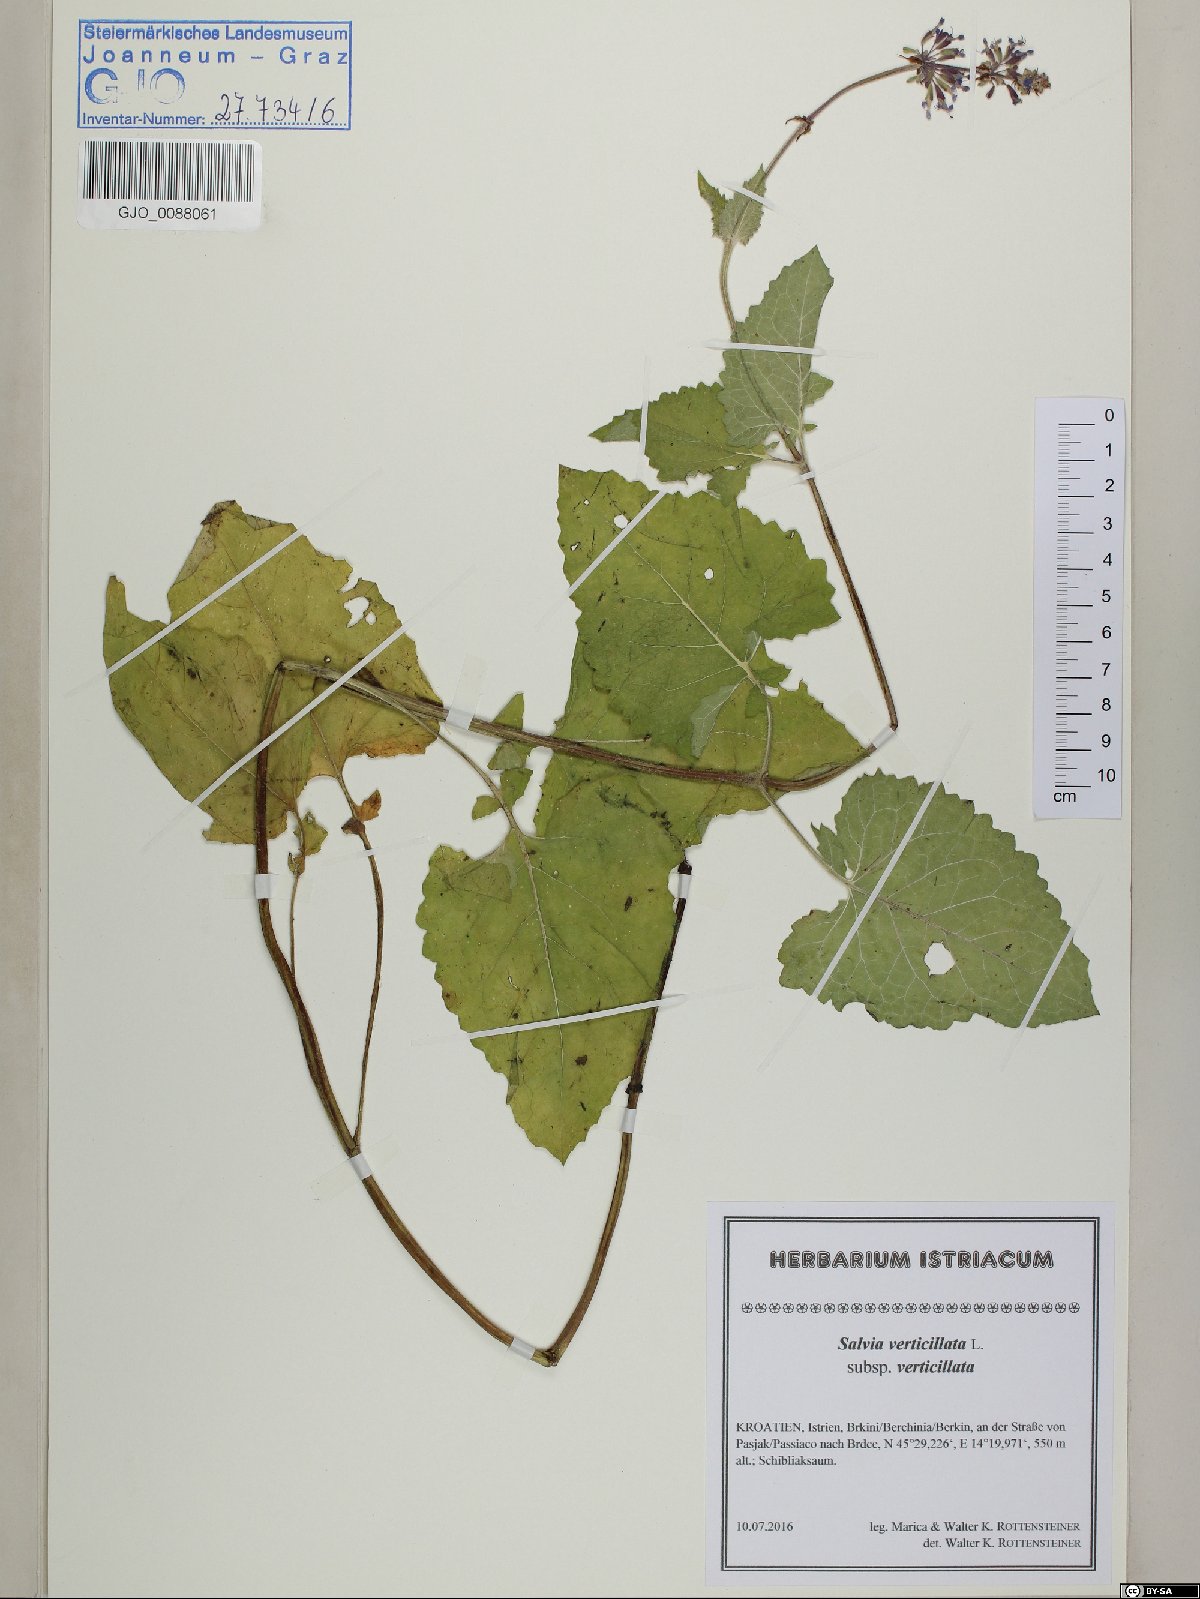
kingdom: Plantae
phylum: Tracheophyta
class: Magnoliopsida
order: Lamiales
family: Lamiaceae
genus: Salvia
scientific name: Salvia verticillata
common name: Whorled clary
